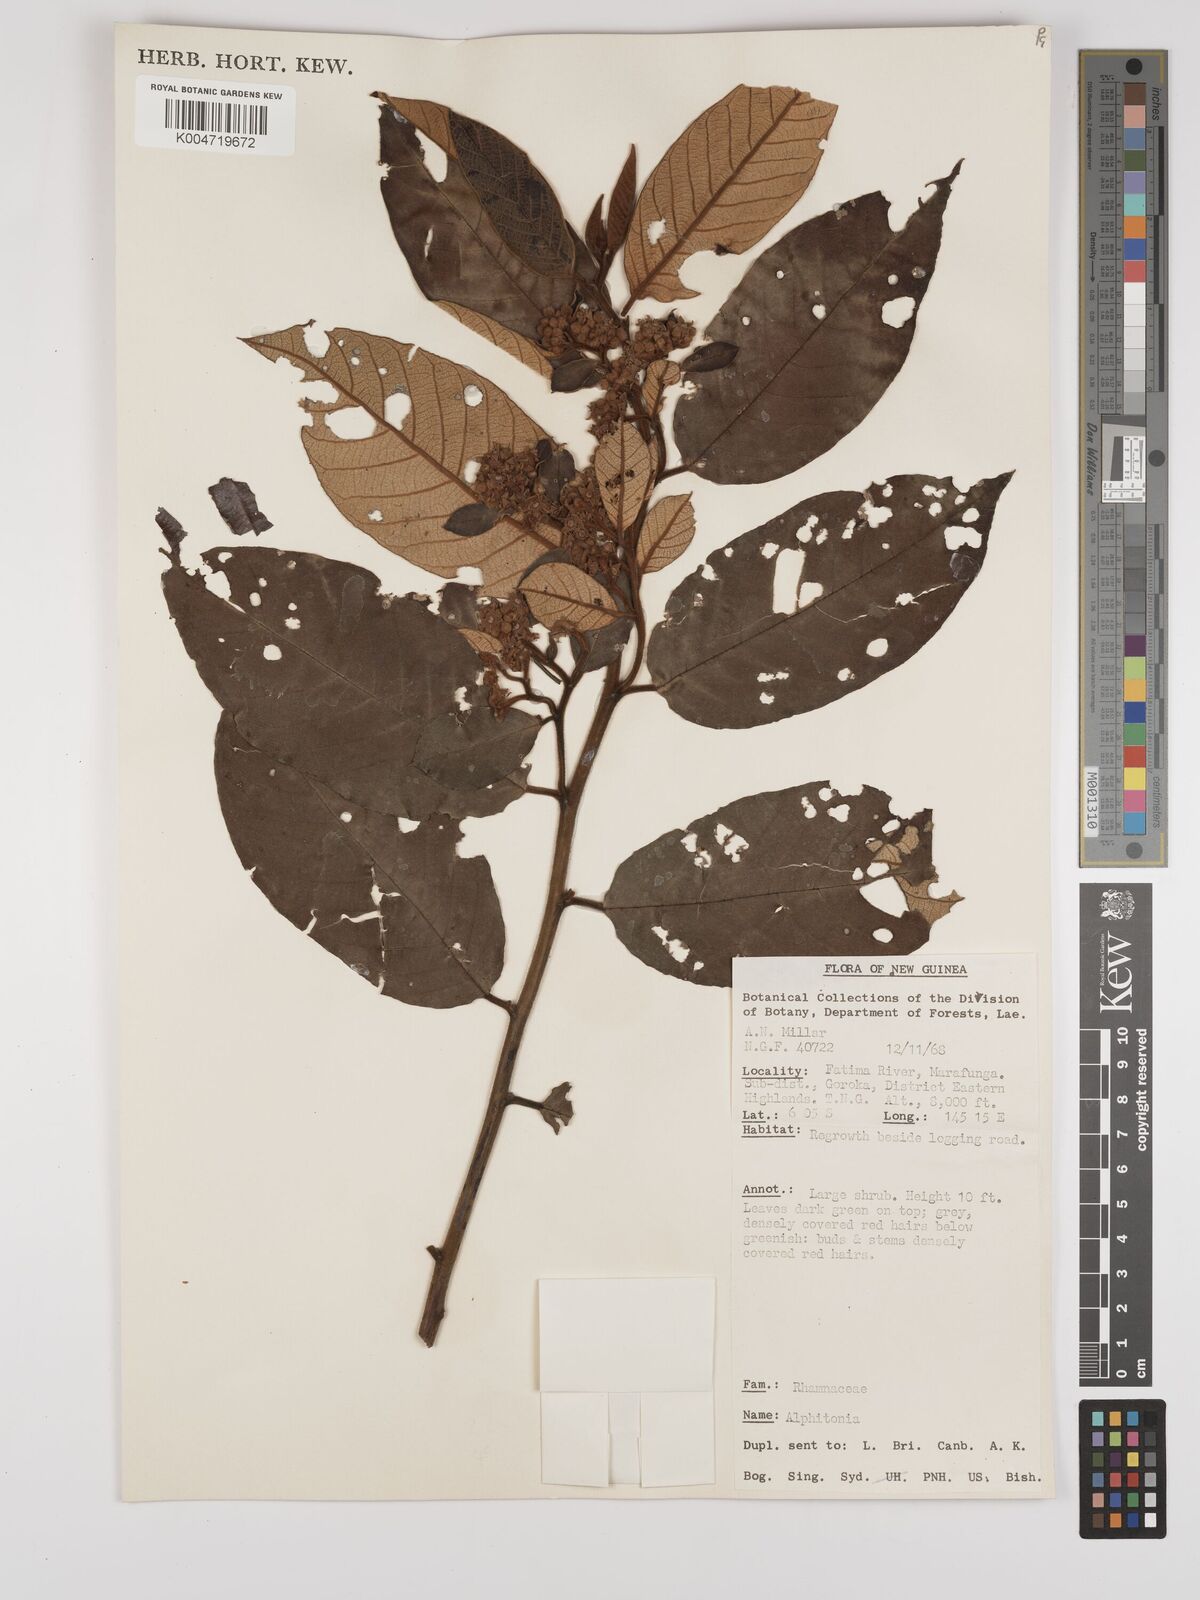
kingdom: Plantae
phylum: Tracheophyta
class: Magnoliopsida
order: Rosales
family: Rhamnaceae
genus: Alphitonia
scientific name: Alphitonia
